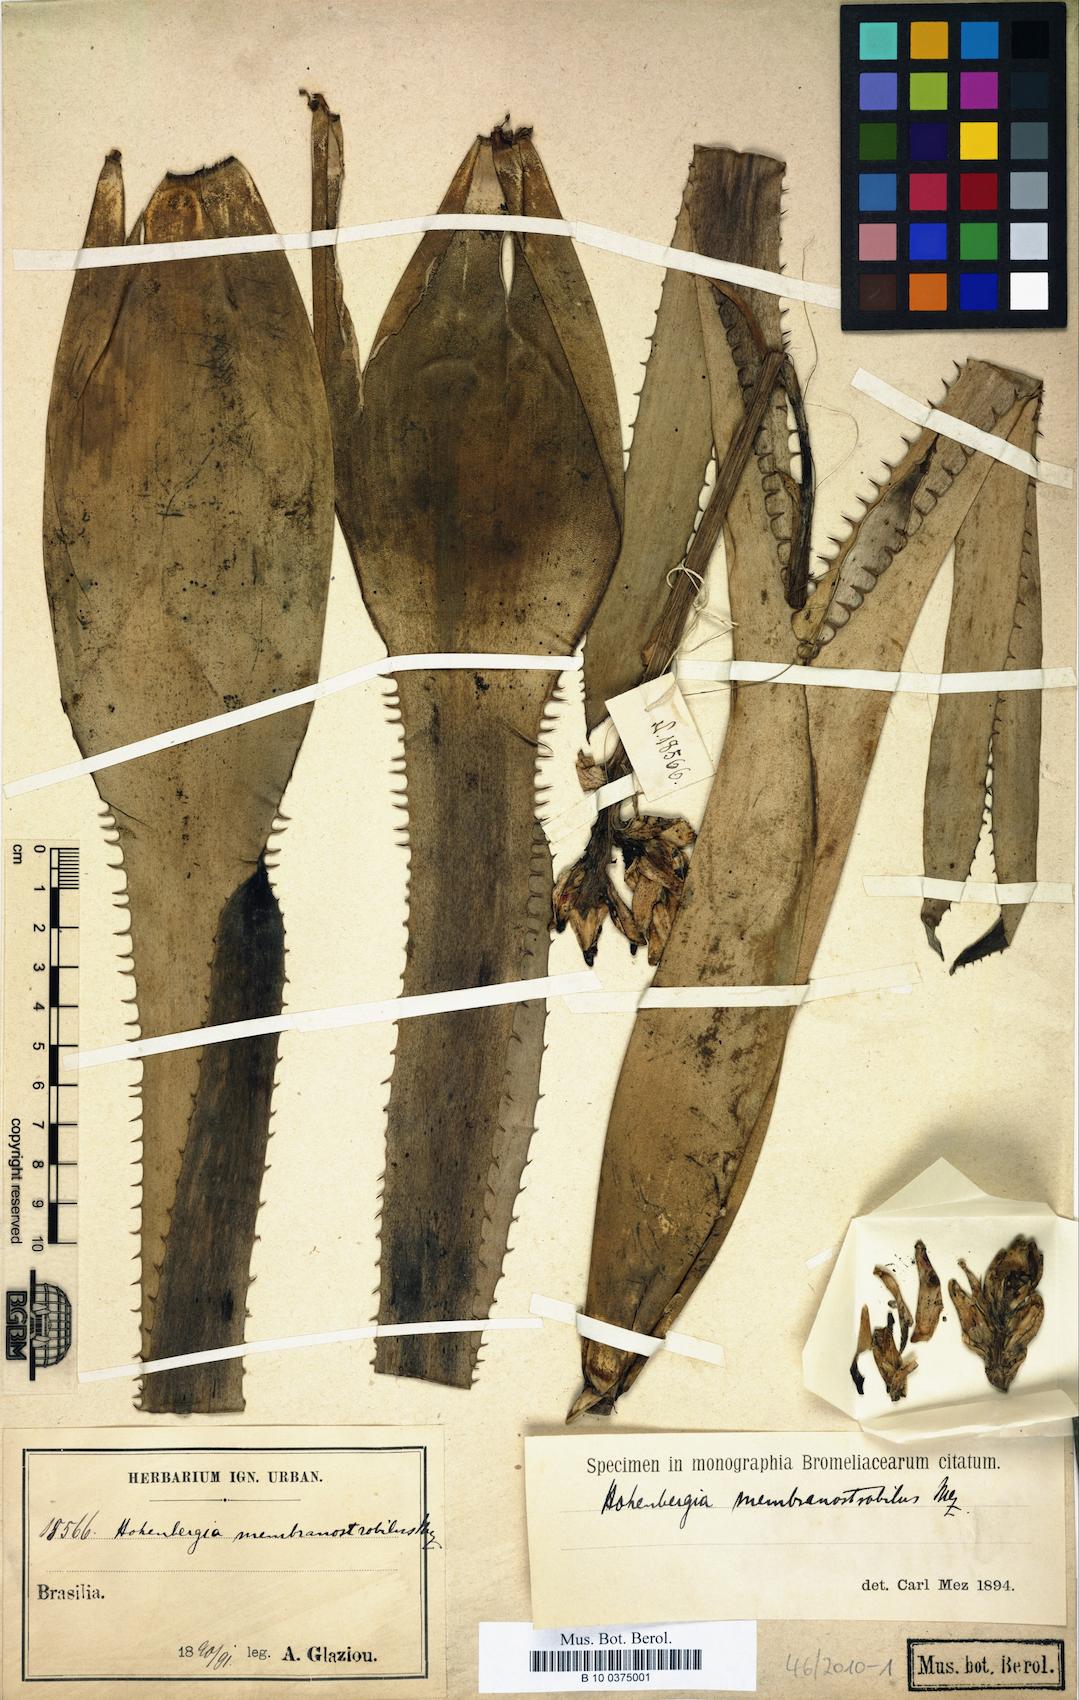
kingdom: Plantae
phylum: Tracheophyta
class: Liliopsida
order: Poales
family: Bromeliaceae
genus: Hohenbergia
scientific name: Hohenbergia membranostrobilus
